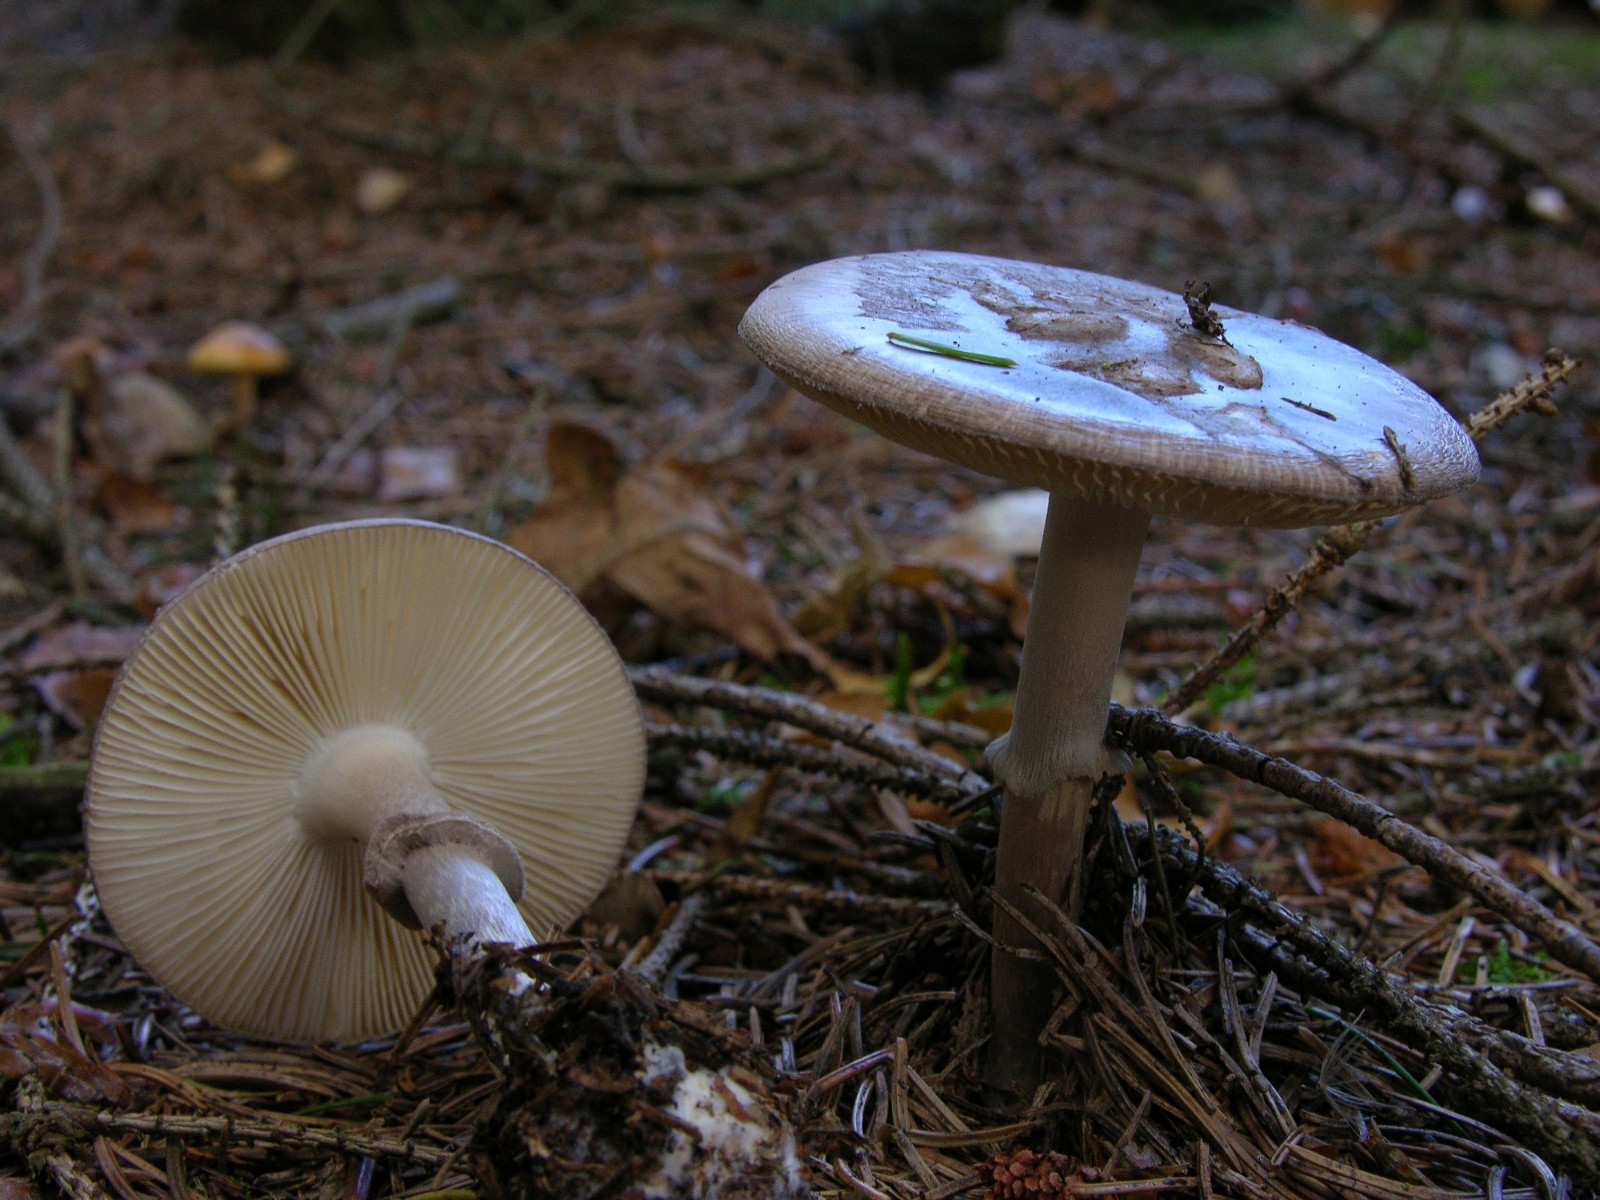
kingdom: Fungi
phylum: Basidiomycota
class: Agaricomycetes
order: Agaricales
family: Amanitaceae
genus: Amanita
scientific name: Amanita porphyria
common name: porfyr-fluesvamp
